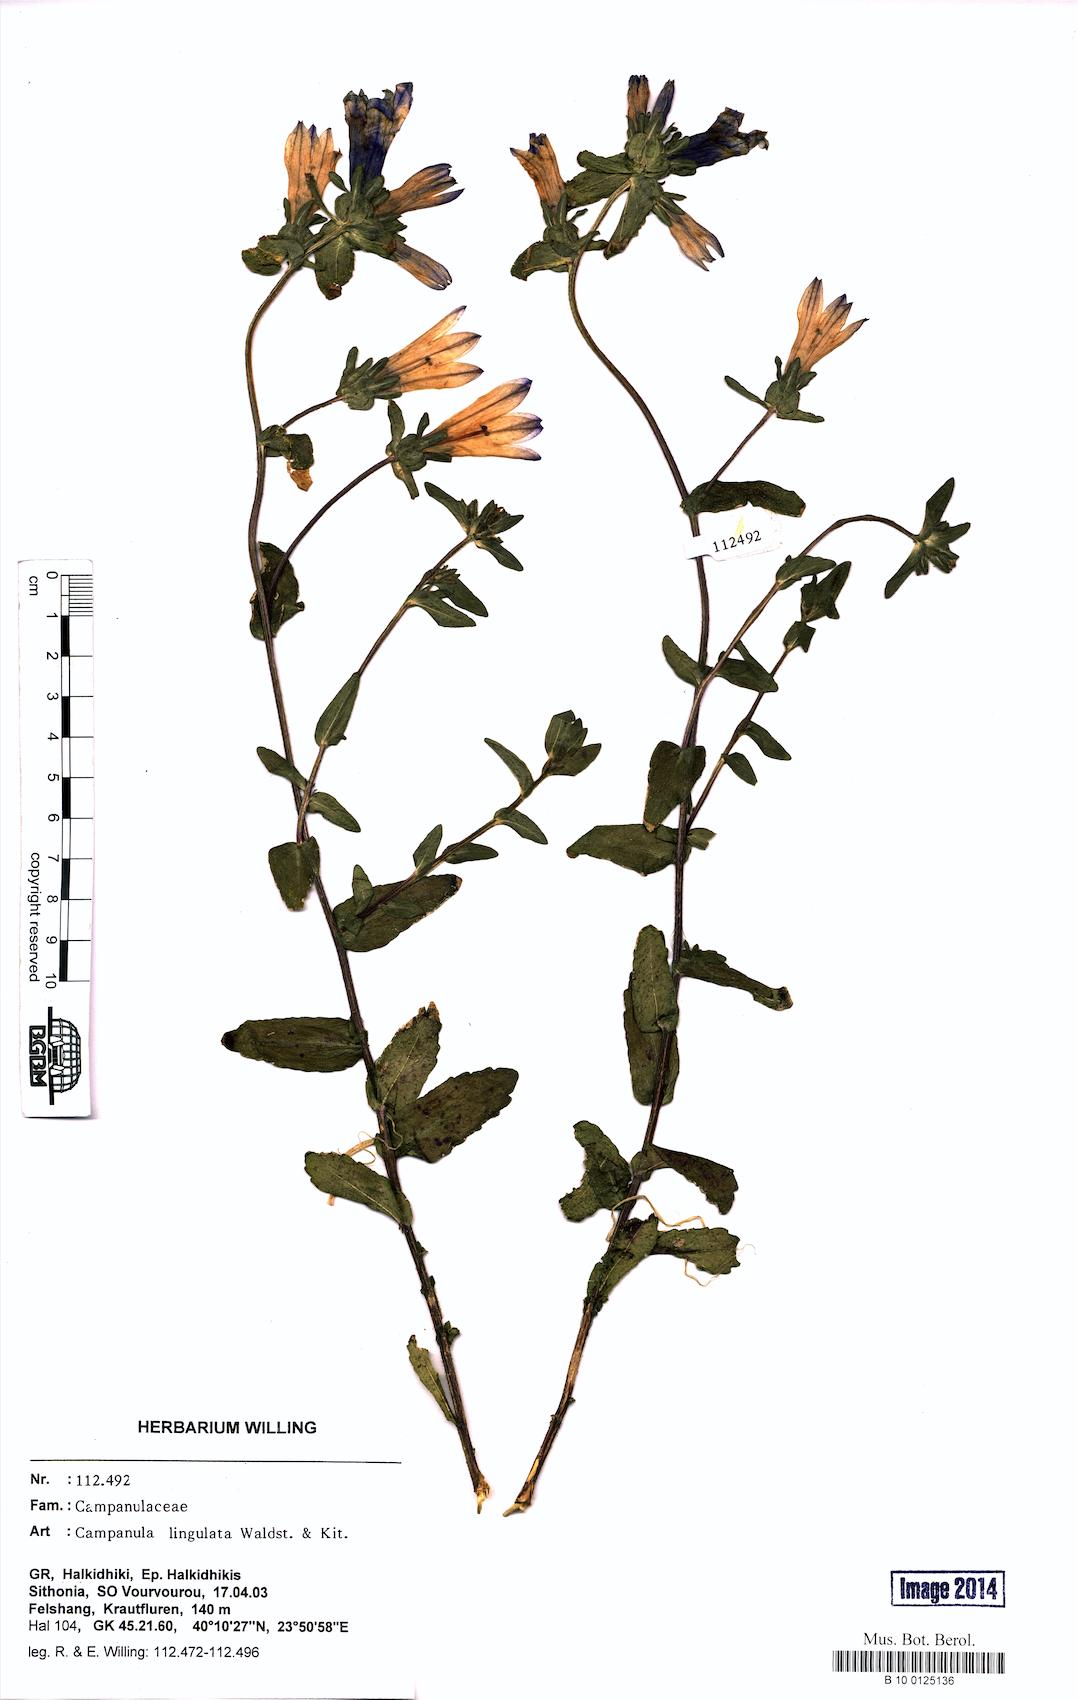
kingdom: Plantae
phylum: Tracheophyta
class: Magnoliopsida
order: Asterales
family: Campanulaceae
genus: Campanula
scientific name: Campanula lingulata
